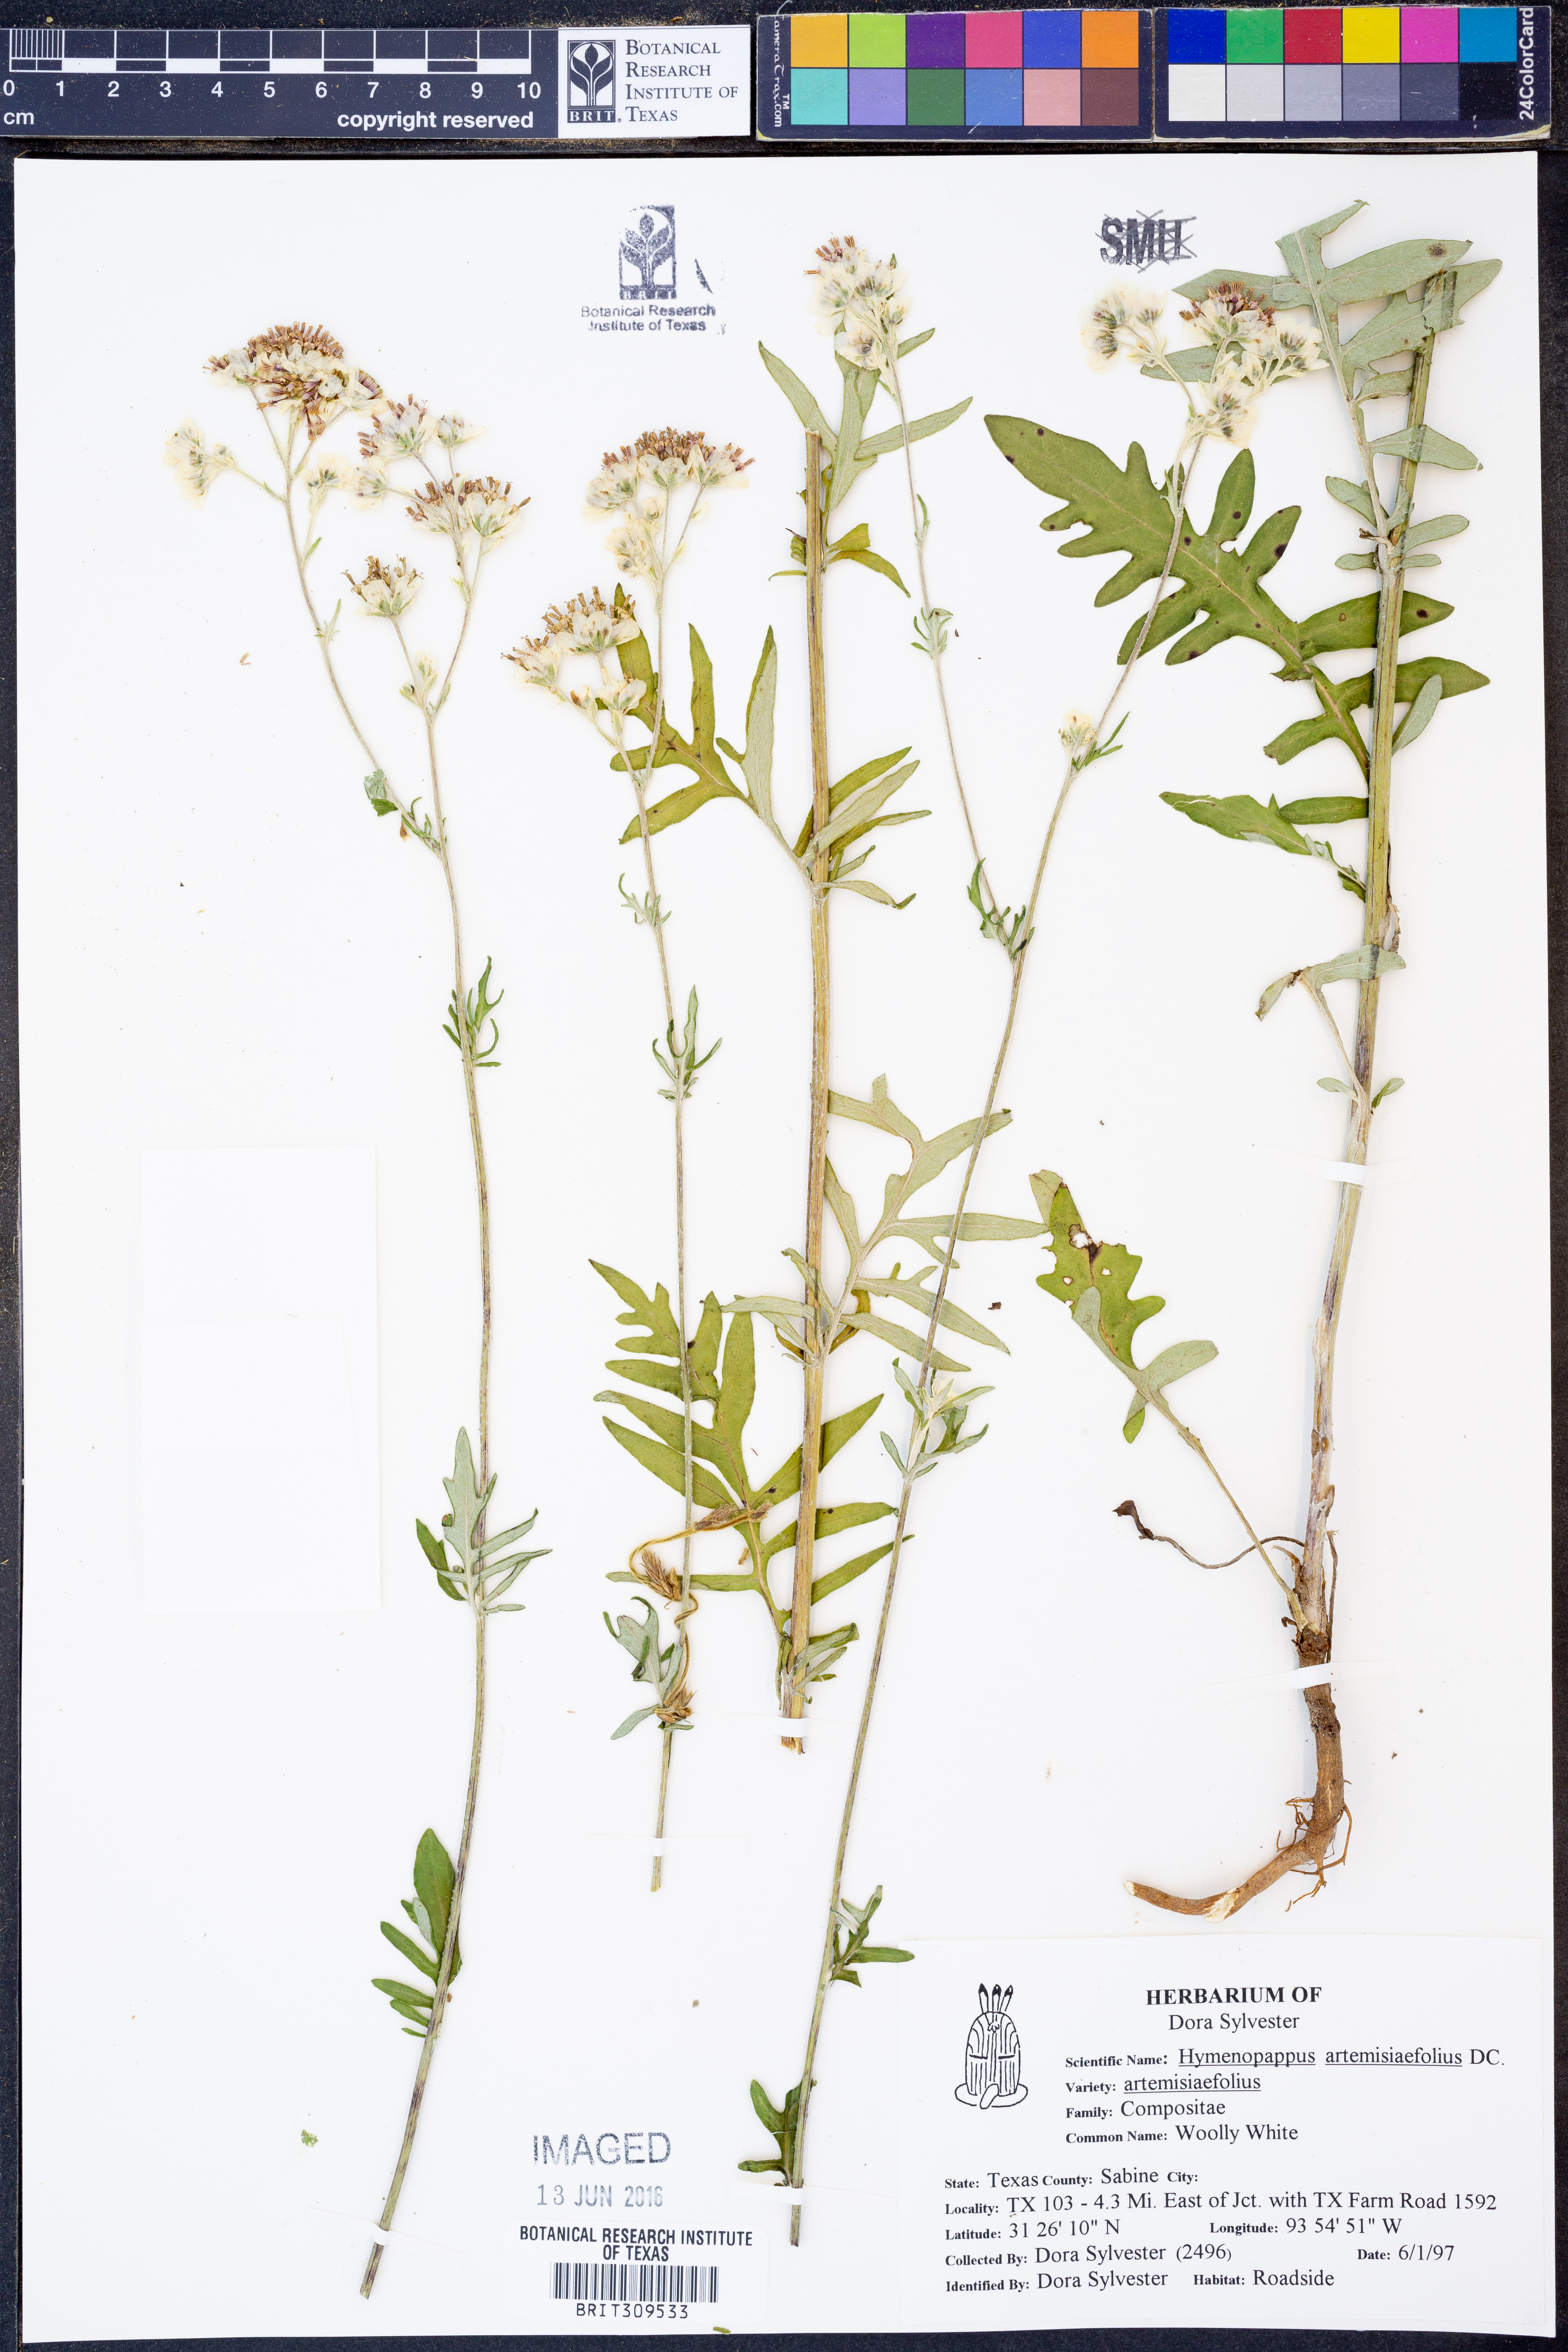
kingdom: Plantae
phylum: Tracheophyta
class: Magnoliopsida
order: Asterales
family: Asteraceae
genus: Hymenopappus
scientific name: Hymenopappus artemisiifolius
